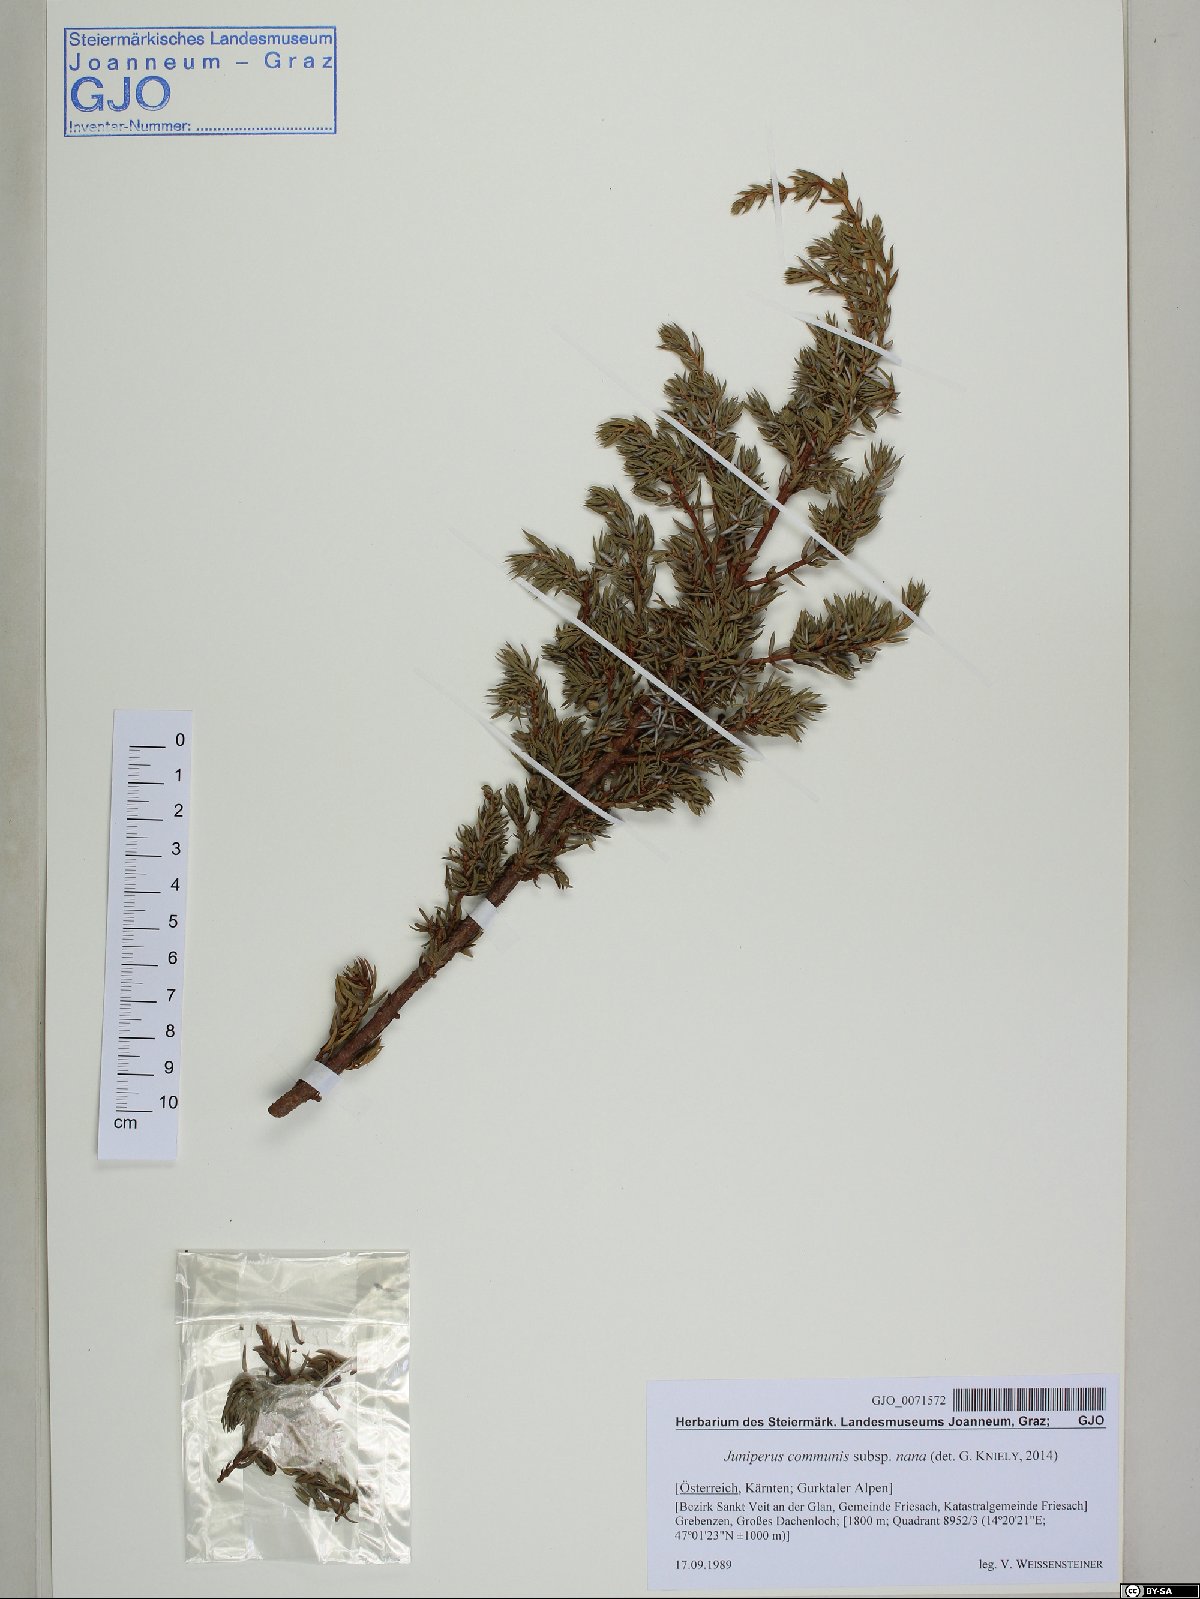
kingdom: Plantae
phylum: Tracheophyta
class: Pinopsida
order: Pinales
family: Cupressaceae
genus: Juniperus
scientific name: Juniperus communis
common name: Common juniper
